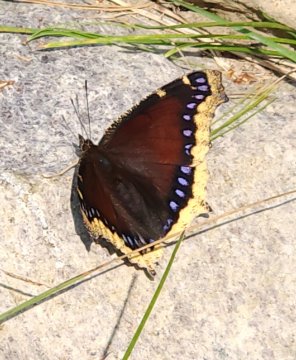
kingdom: Animalia
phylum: Arthropoda
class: Insecta
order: Lepidoptera
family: Nymphalidae
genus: Nymphalis
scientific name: Nymphalis antiopa
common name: Mourning Cloak
